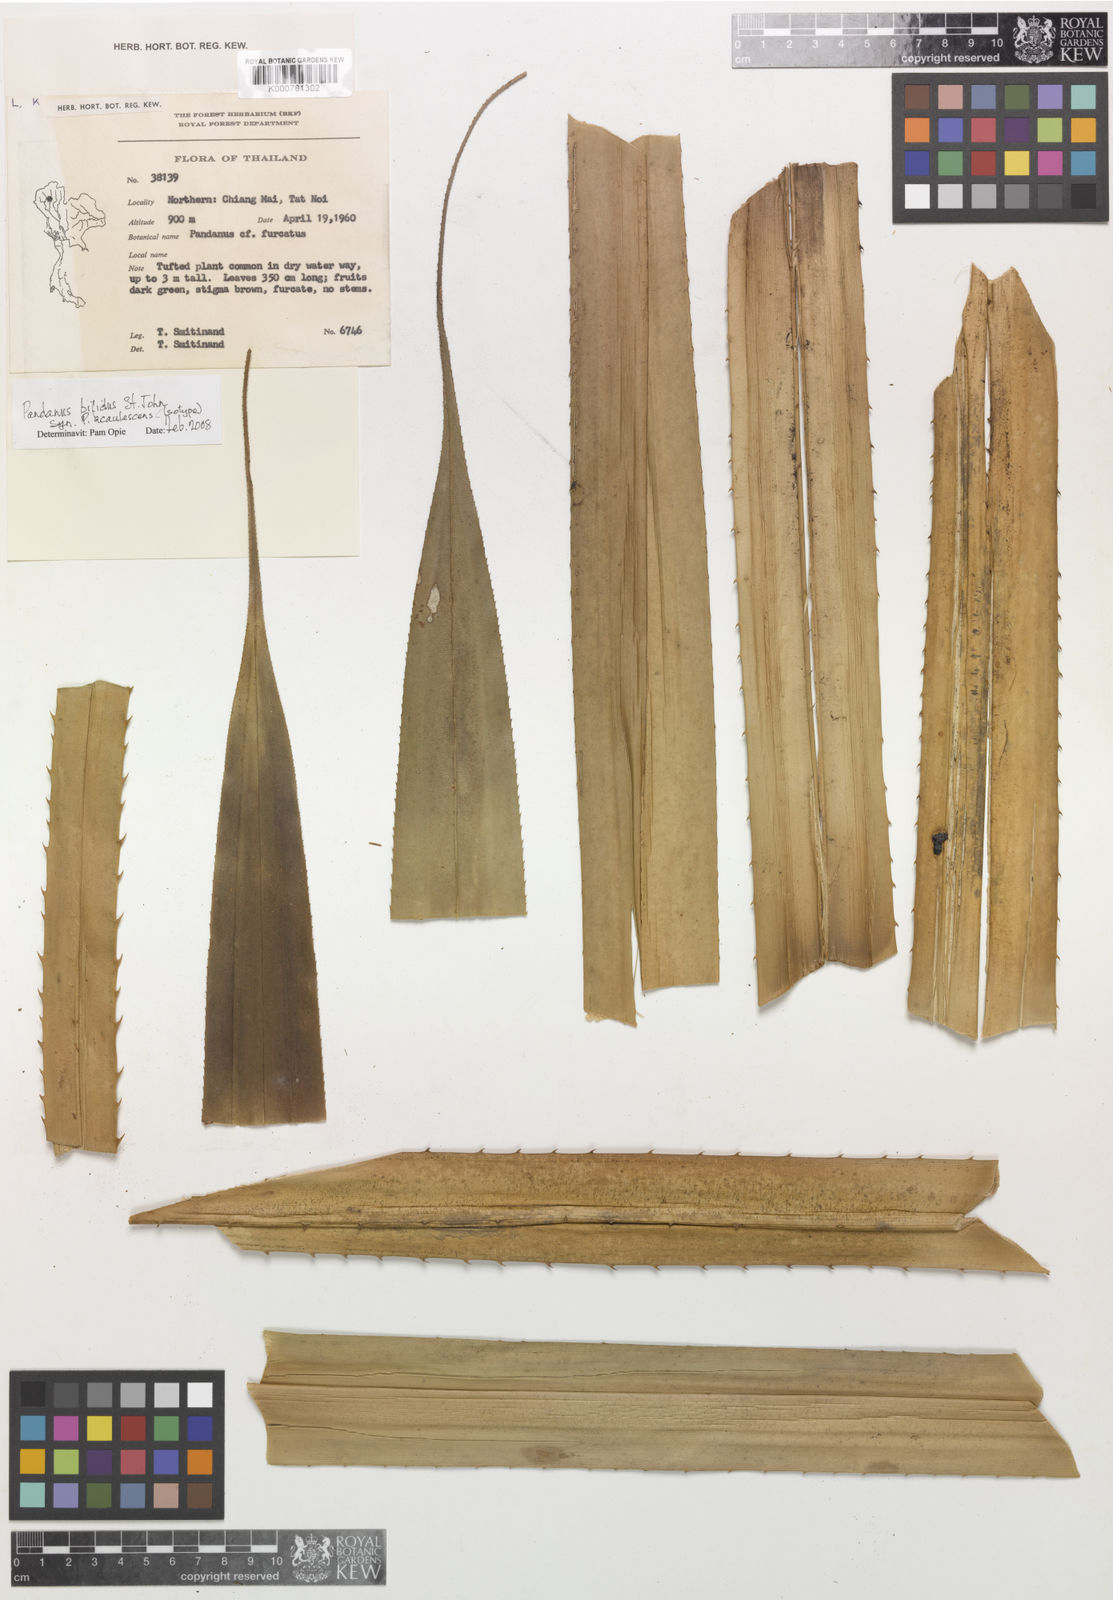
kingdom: Plantae
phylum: Tracheophyta
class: Liliopsida
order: Pandanales
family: Pandanaceae
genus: Pandanus
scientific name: Pandanus obconicus
